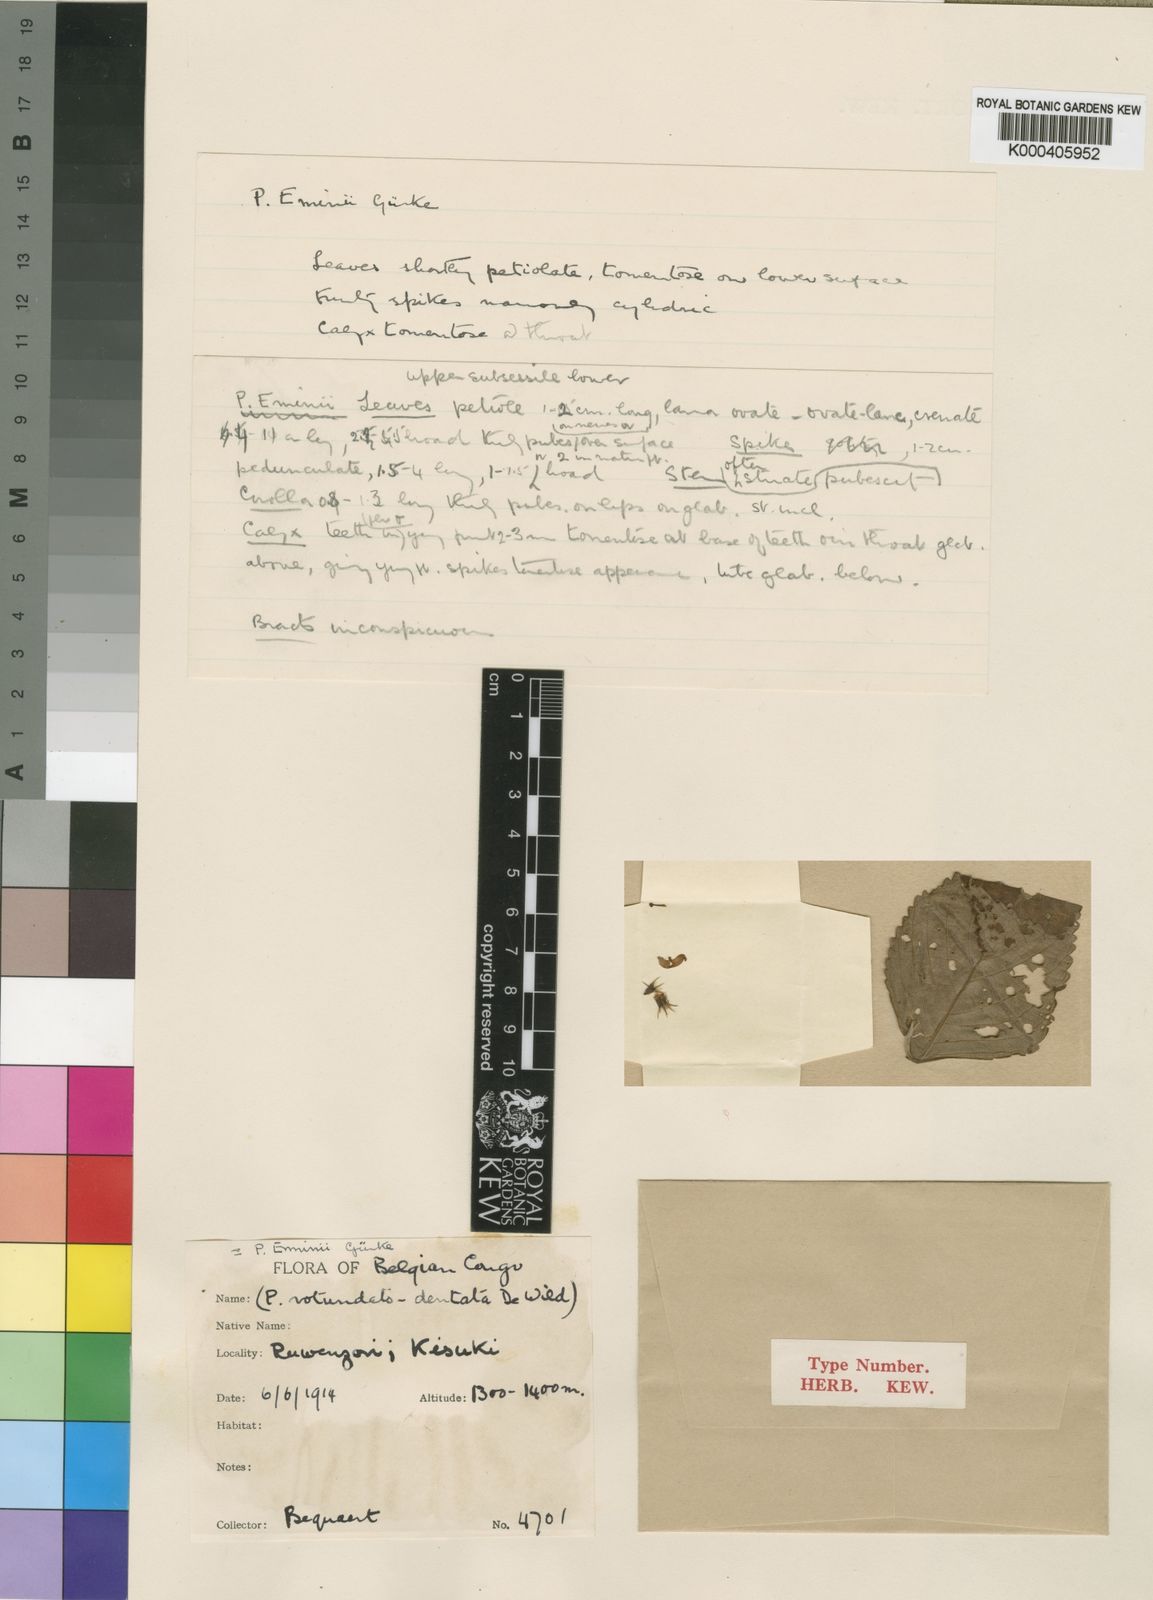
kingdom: Plantae
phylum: Tracheophyta
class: Magnoliopsida
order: Lamiales
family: Lamiaceae
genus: Coleus
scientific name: Coleus
